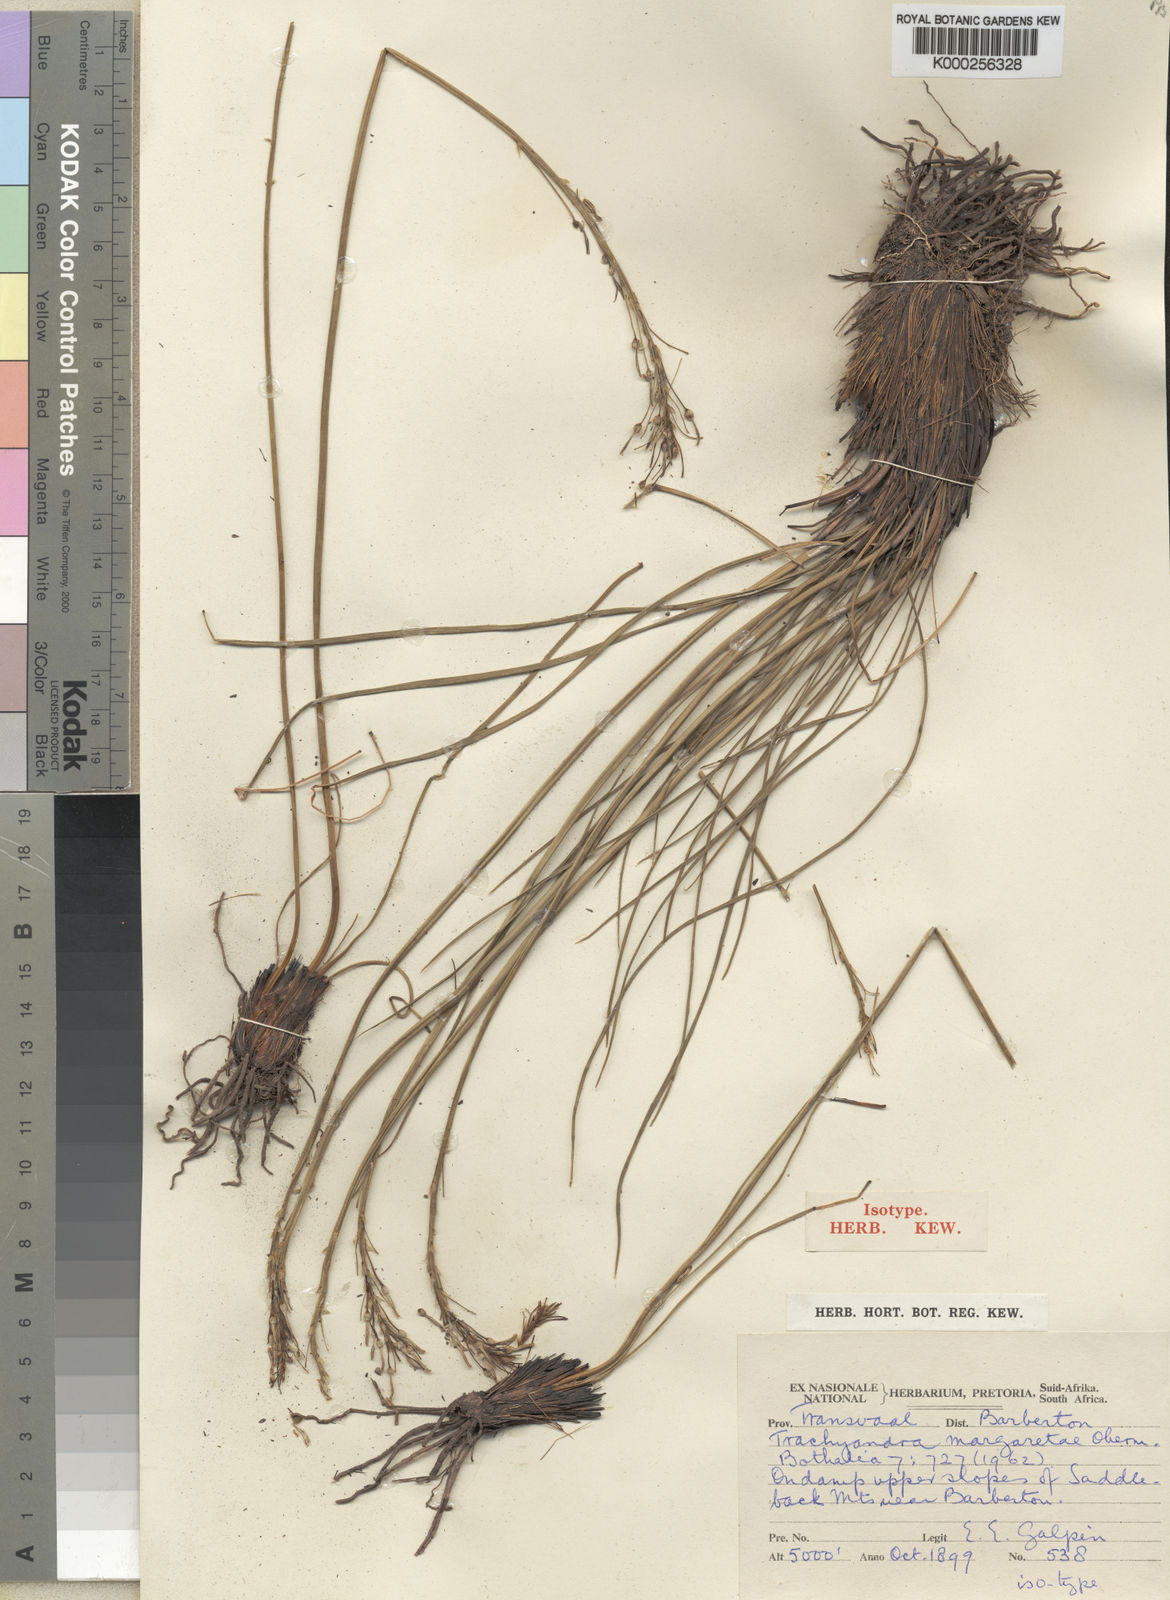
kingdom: Plantae
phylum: Tracheophyta
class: Liliopsida
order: Asparagales
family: Asphodelaceae
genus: Trachyandra
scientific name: Trachyandra margaretae
